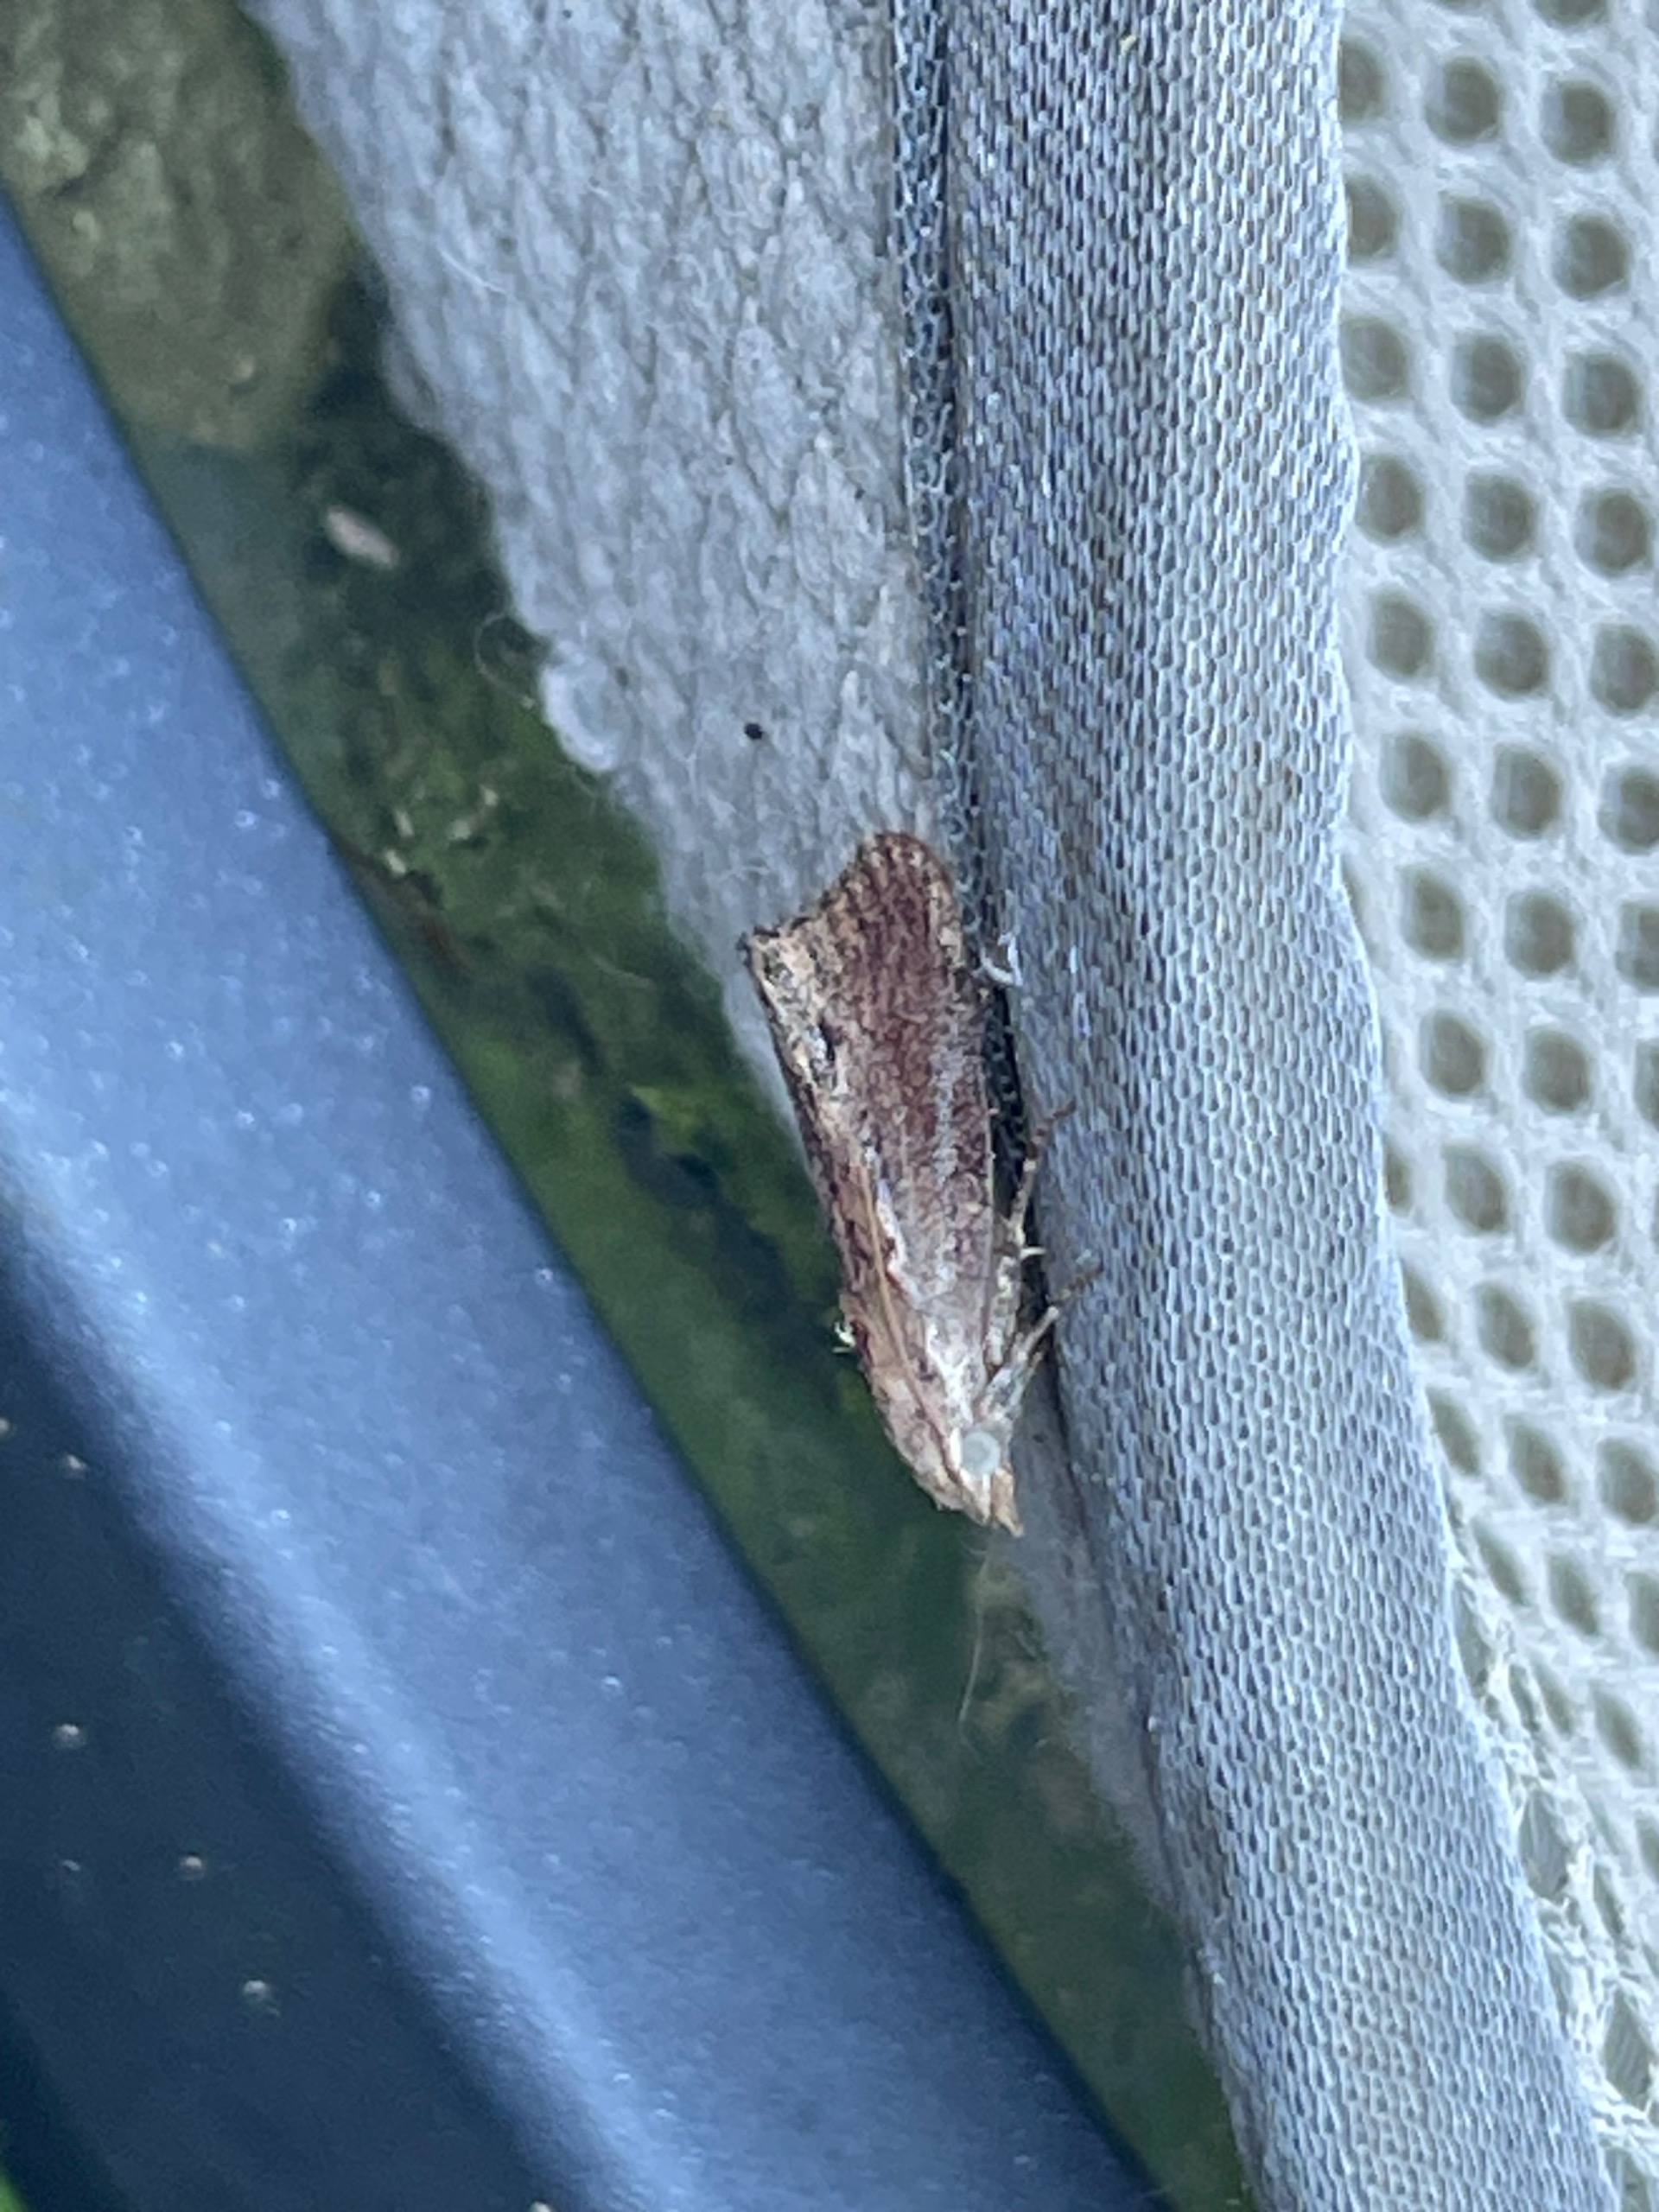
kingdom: Animalia
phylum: Arthropoda
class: Insecta
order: Lepidoptera
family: Pyralidae
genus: Galleria
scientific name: Galleria mellonella
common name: Stort voksmøl
